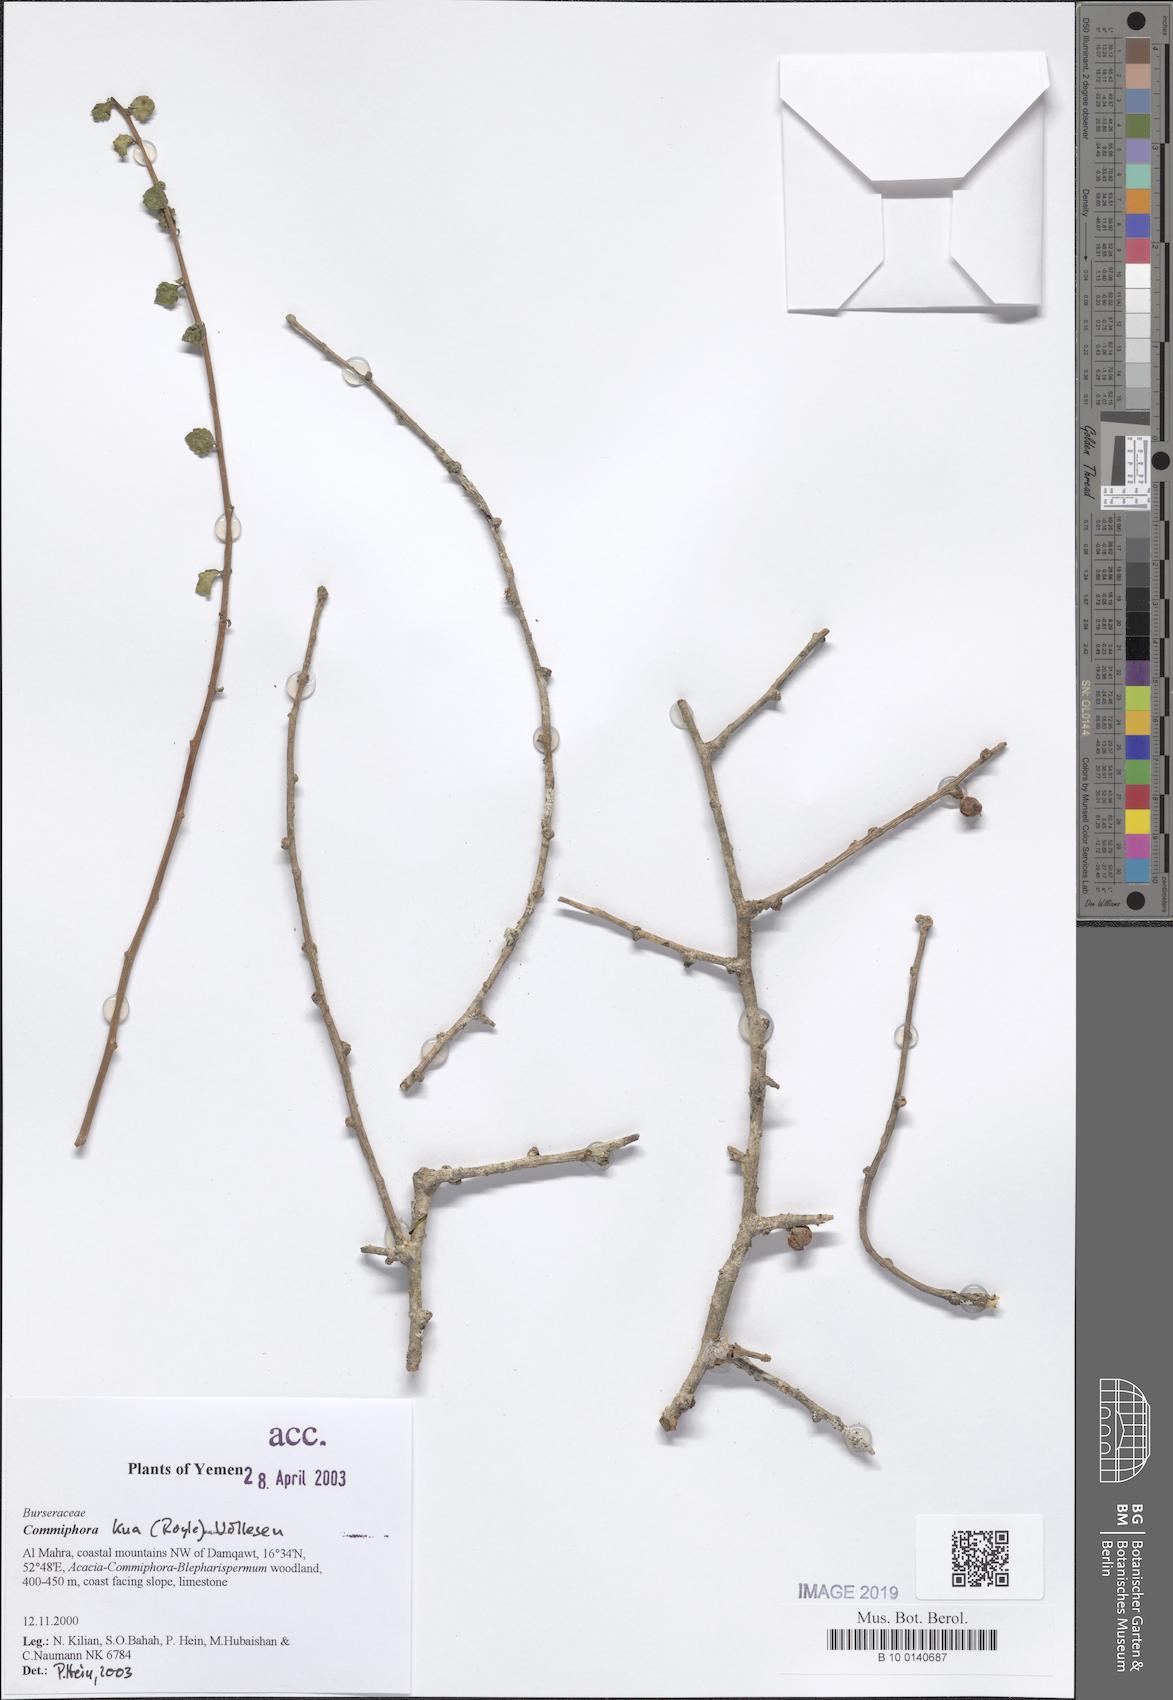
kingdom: Plantae
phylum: Tracheophyta
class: Magnoliopsida
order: Sapindales
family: Burseraceae
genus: Commiphora
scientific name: Commiphora kua
